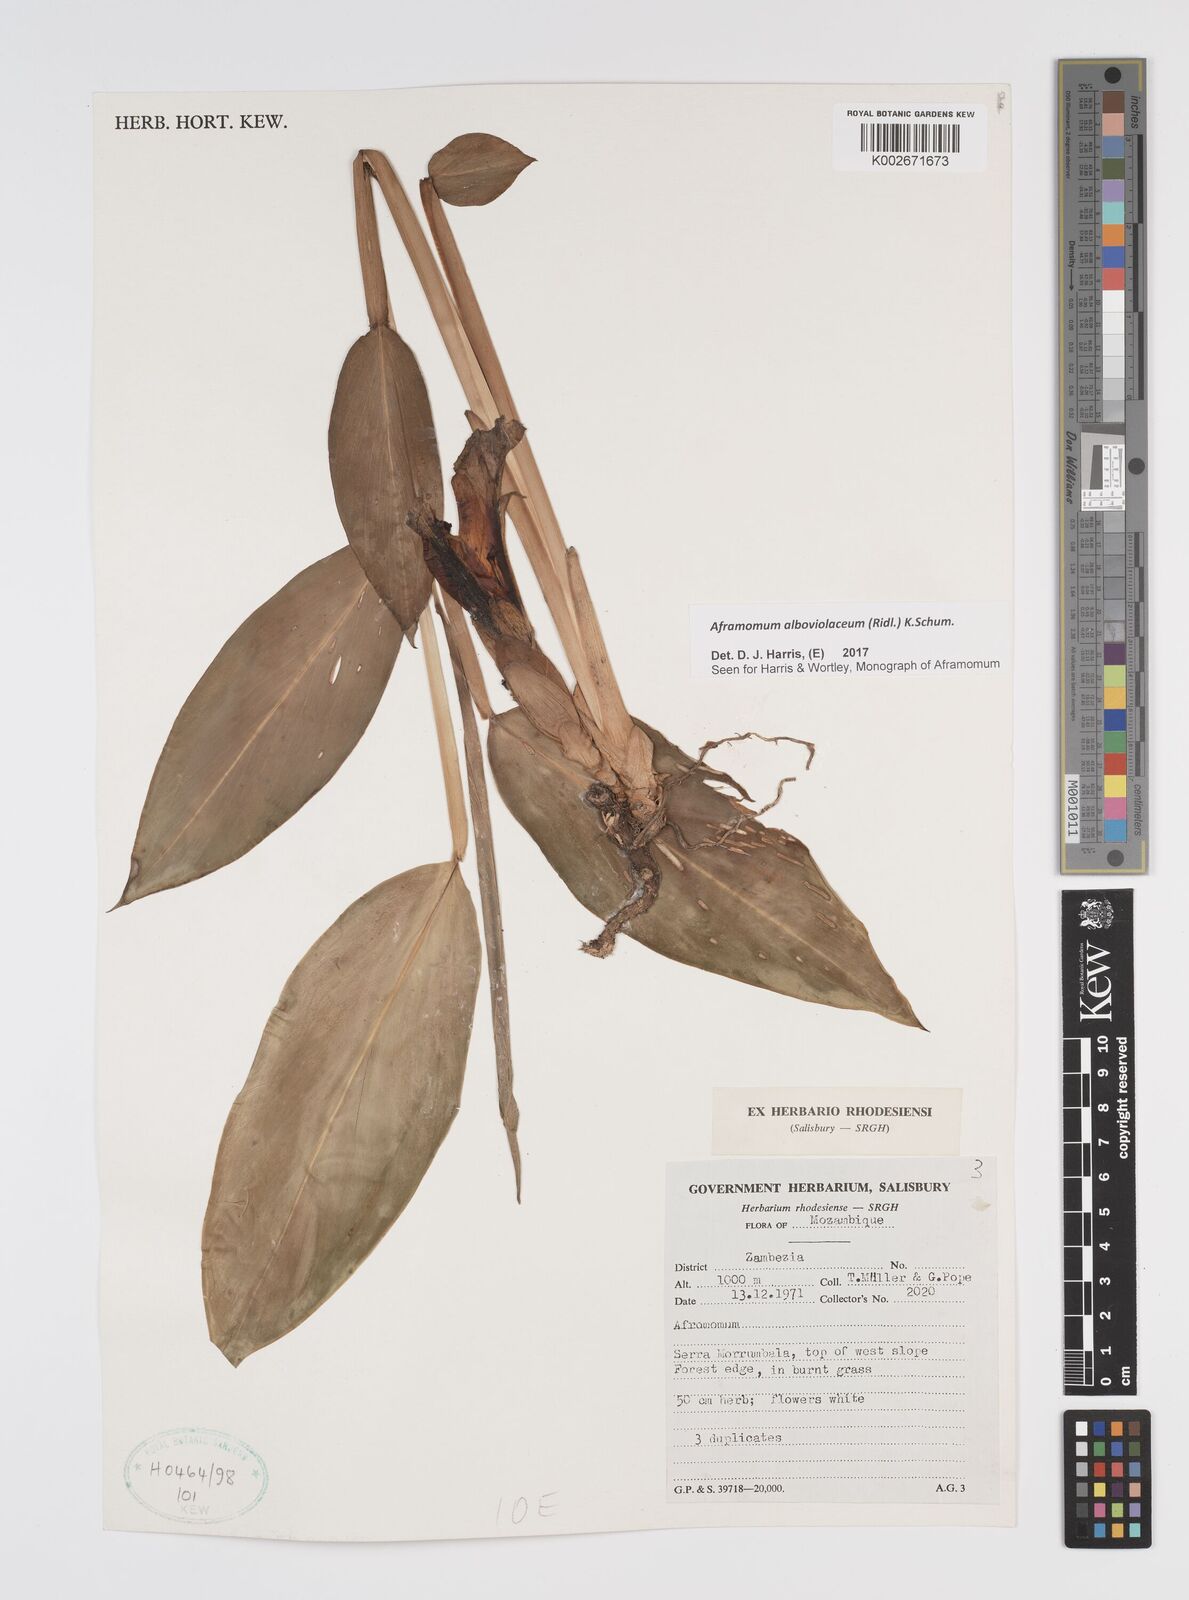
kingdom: Plantae
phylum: Tracheophyta
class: Liliopsida
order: Zingiberales
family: Zingiberaceae
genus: Aframomum
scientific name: Aframomum alboviolaceum
